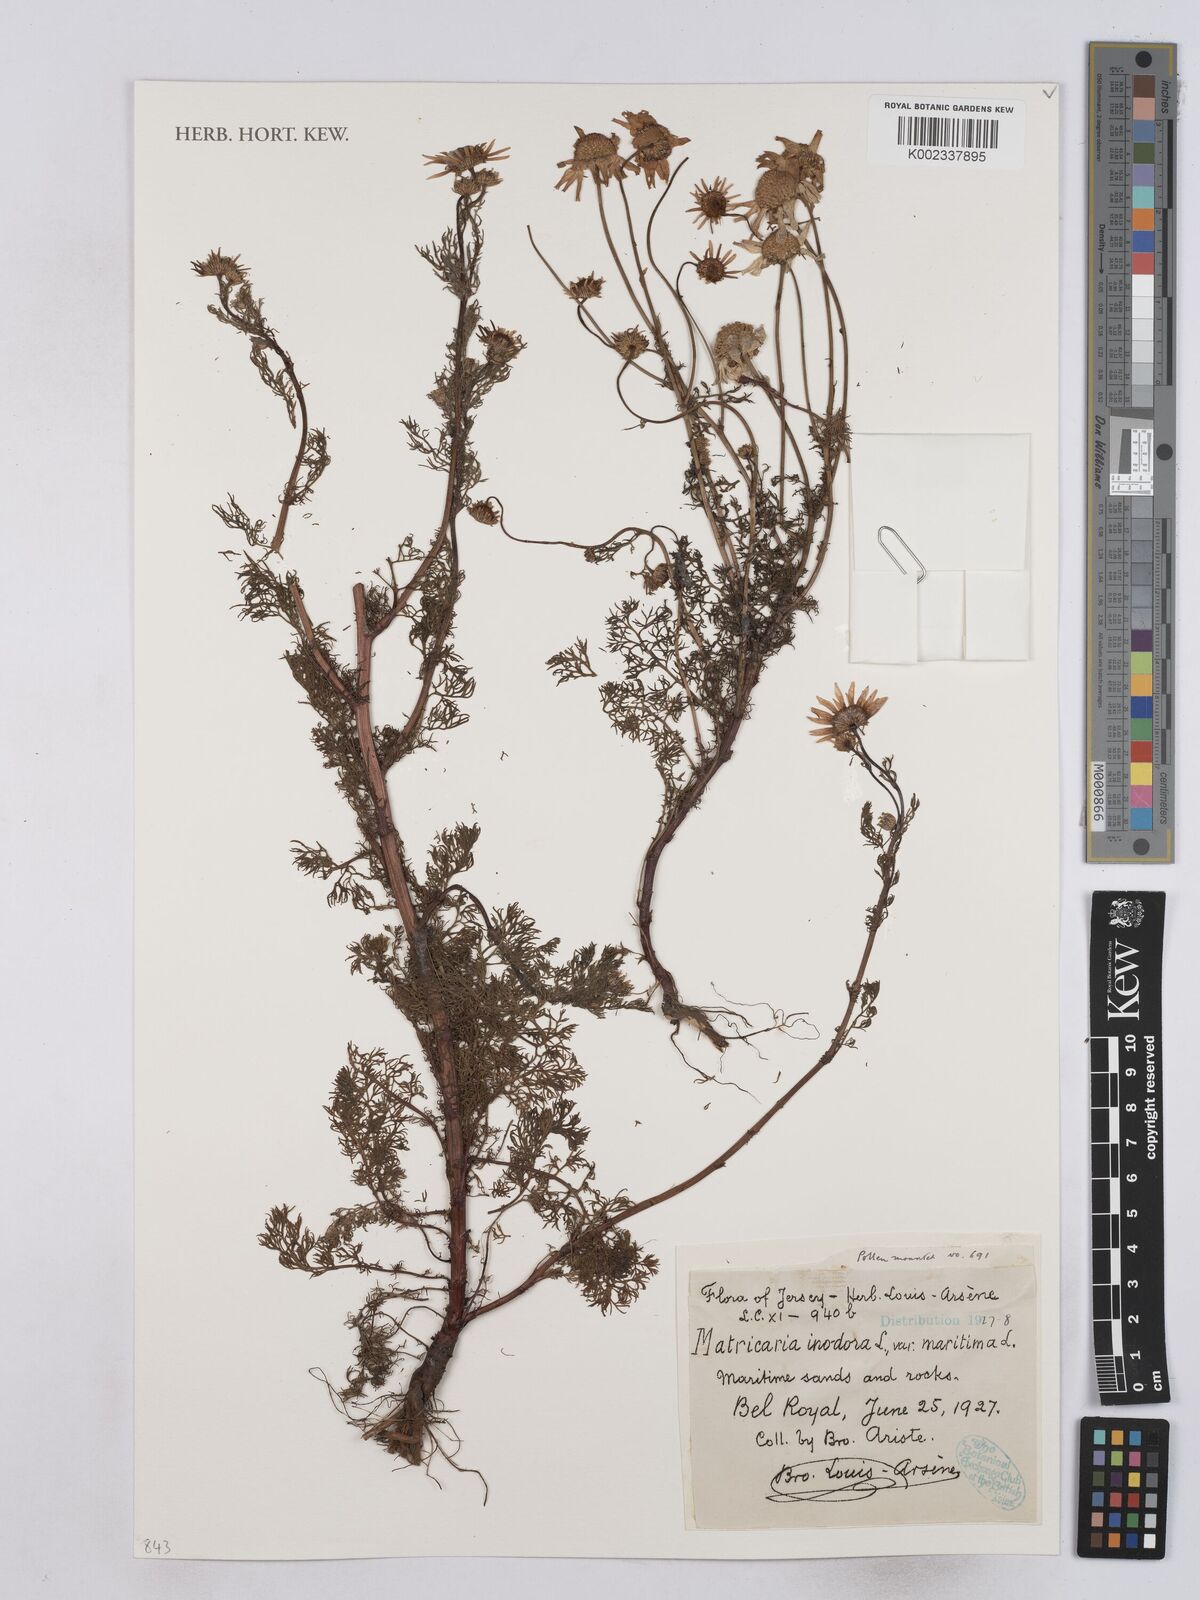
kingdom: Plantae
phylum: Tracheophyta
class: Magnoliopsida
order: Asterales
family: Asteraceae
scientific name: Asteraceae
